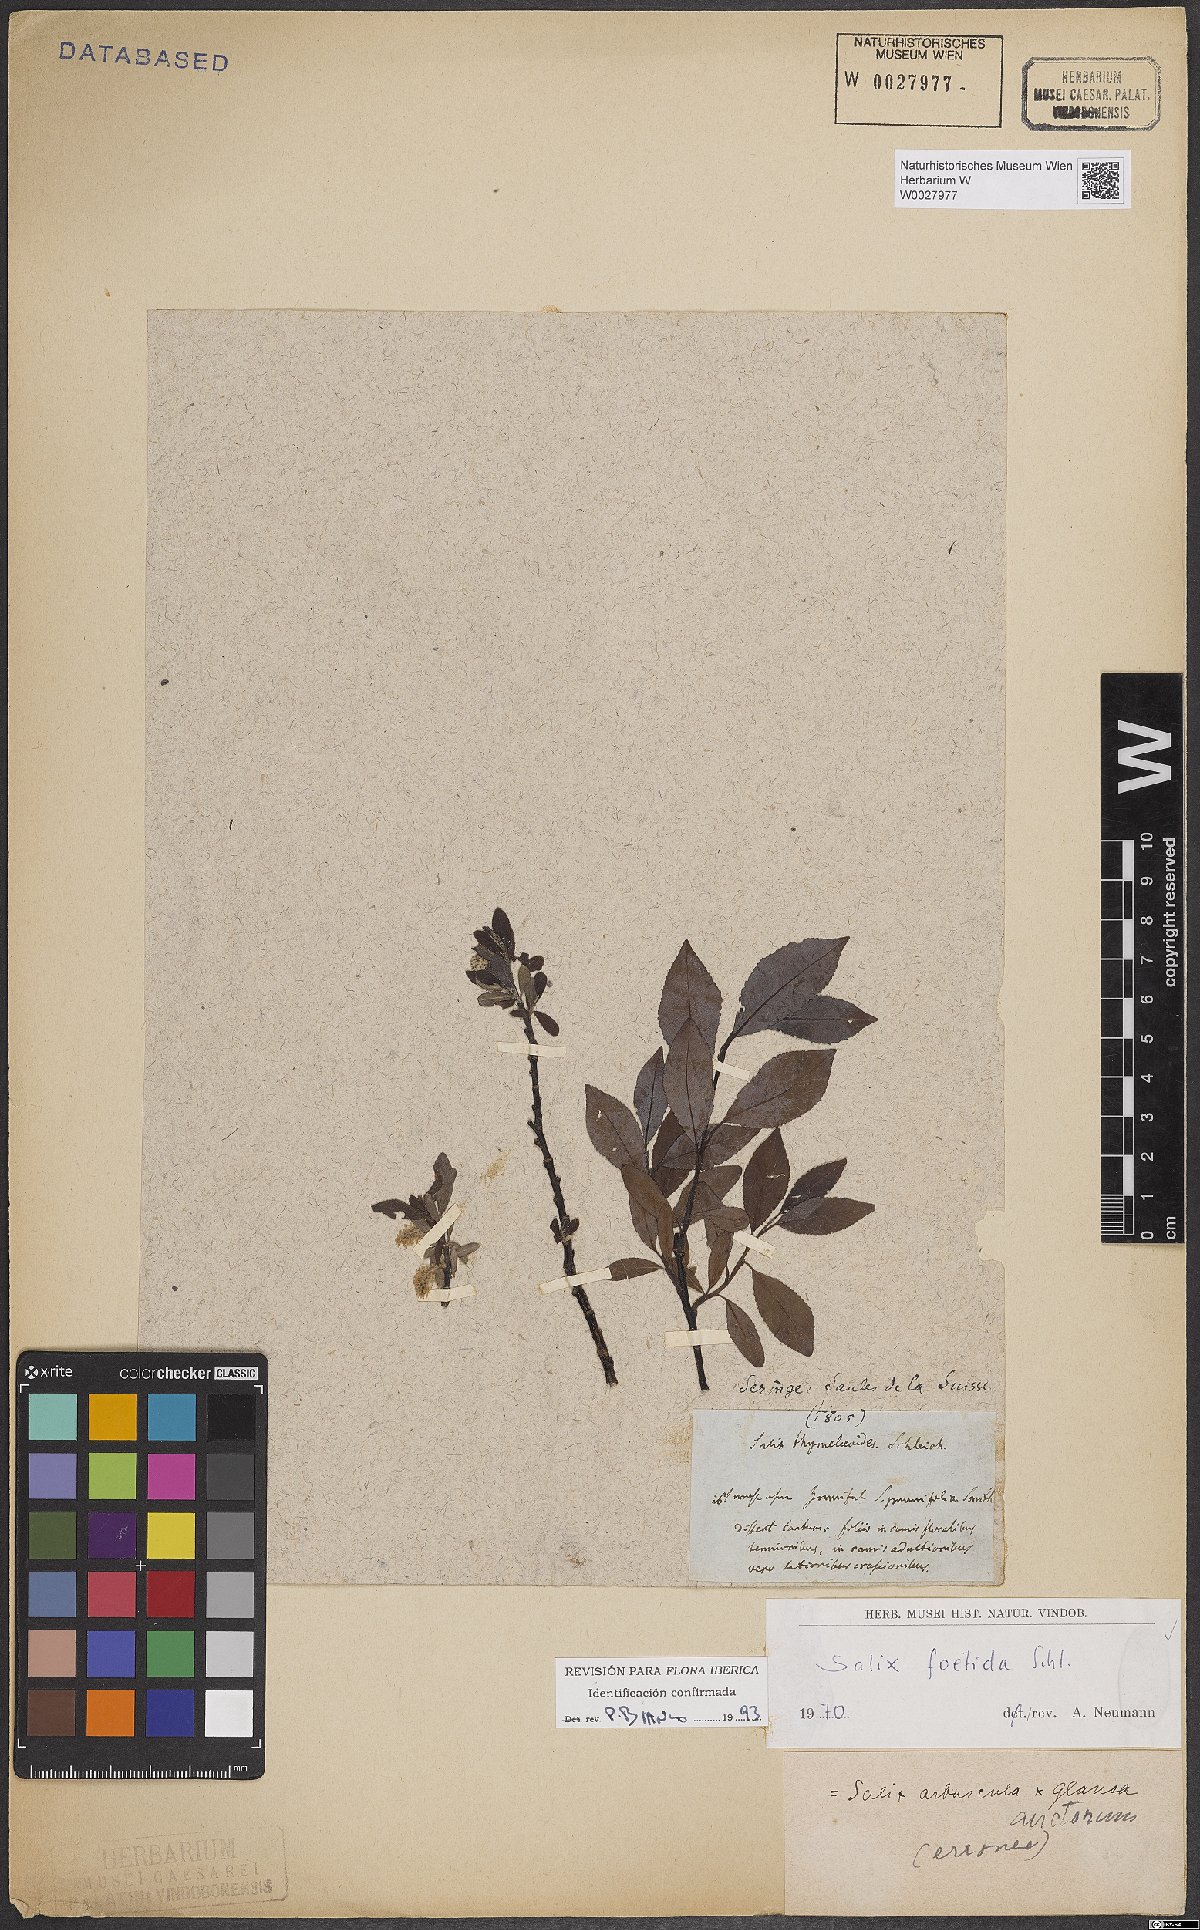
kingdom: Plantae
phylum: Tracheophyta
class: Magnoliopsida
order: Malpighiales
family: Salicaceae
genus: Salix
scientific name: Salix foetida
